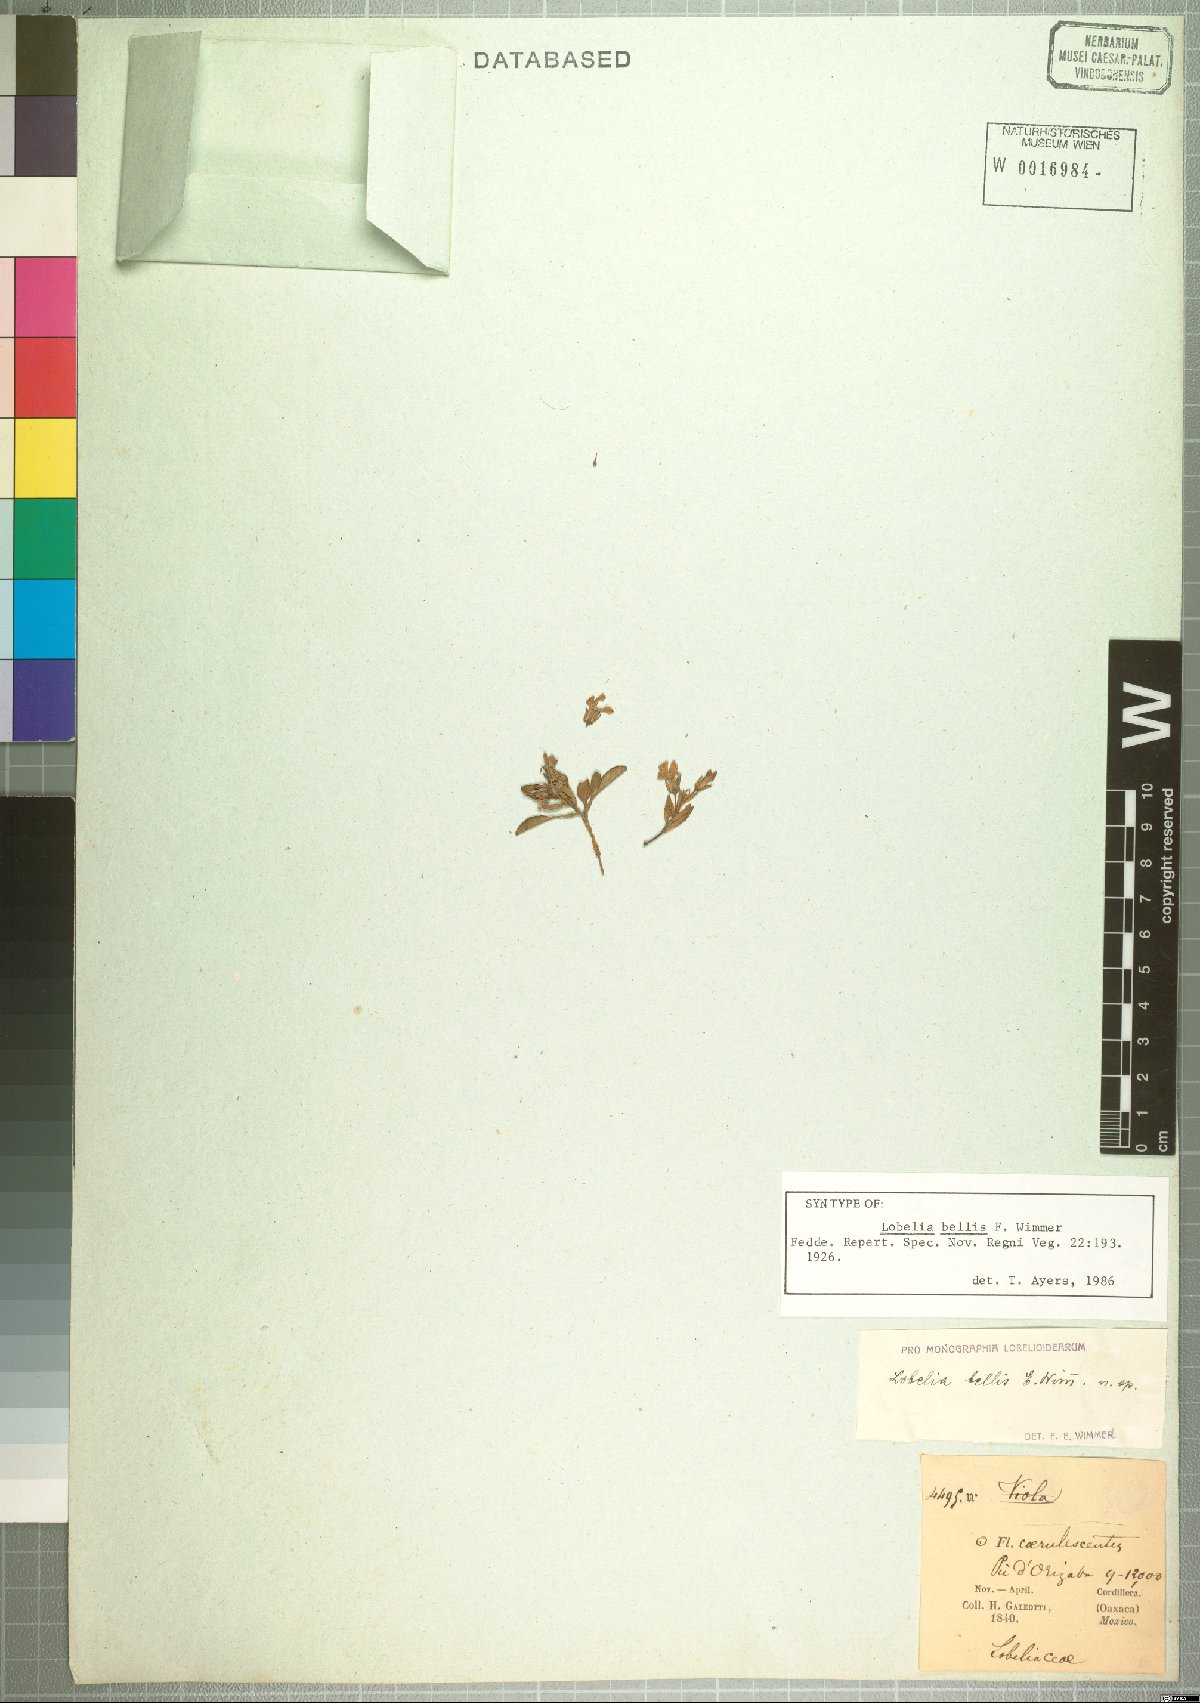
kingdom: Plantae
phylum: Tracheophyta
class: Magnoliopsida
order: Asterales
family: Campanulaceae
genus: Lobelia
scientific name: Lobelia nana
